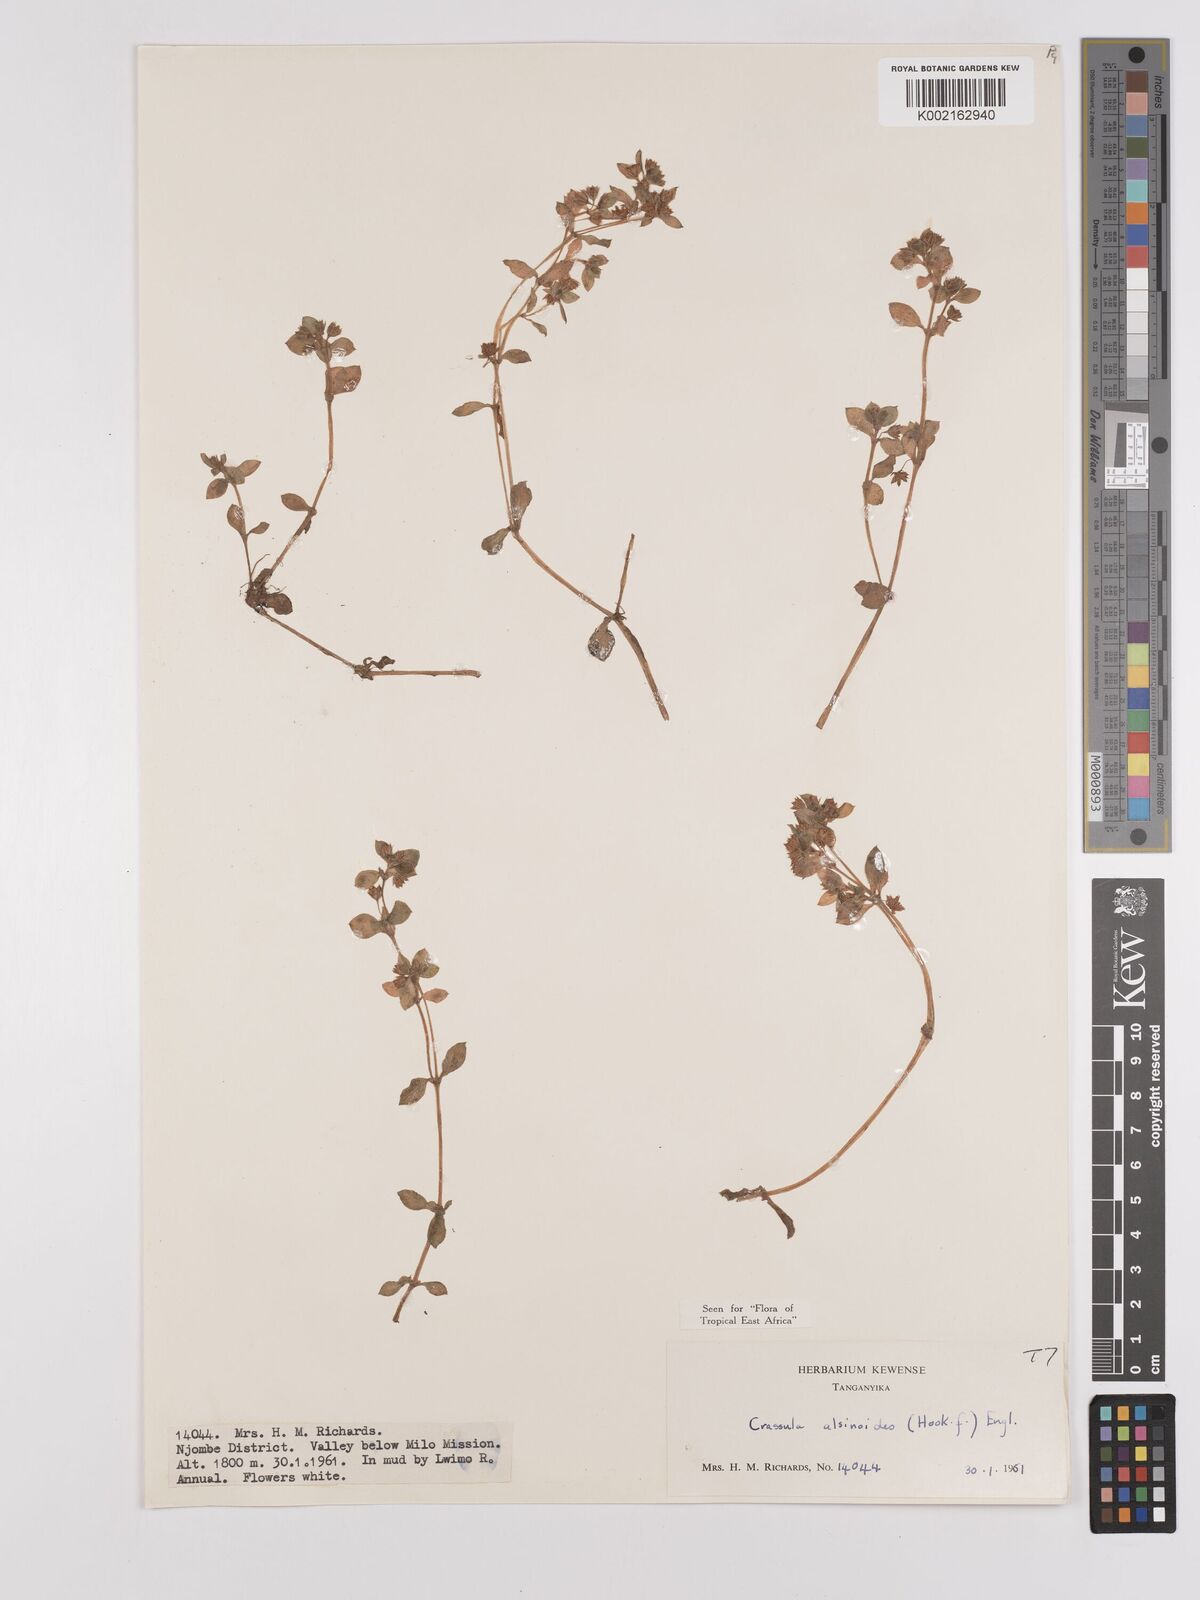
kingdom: Plantae
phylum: Tracheophyta
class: Magnoliopsida
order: Saxifragales
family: Crassulaceae
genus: Crassula
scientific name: Crassula alsinoides
